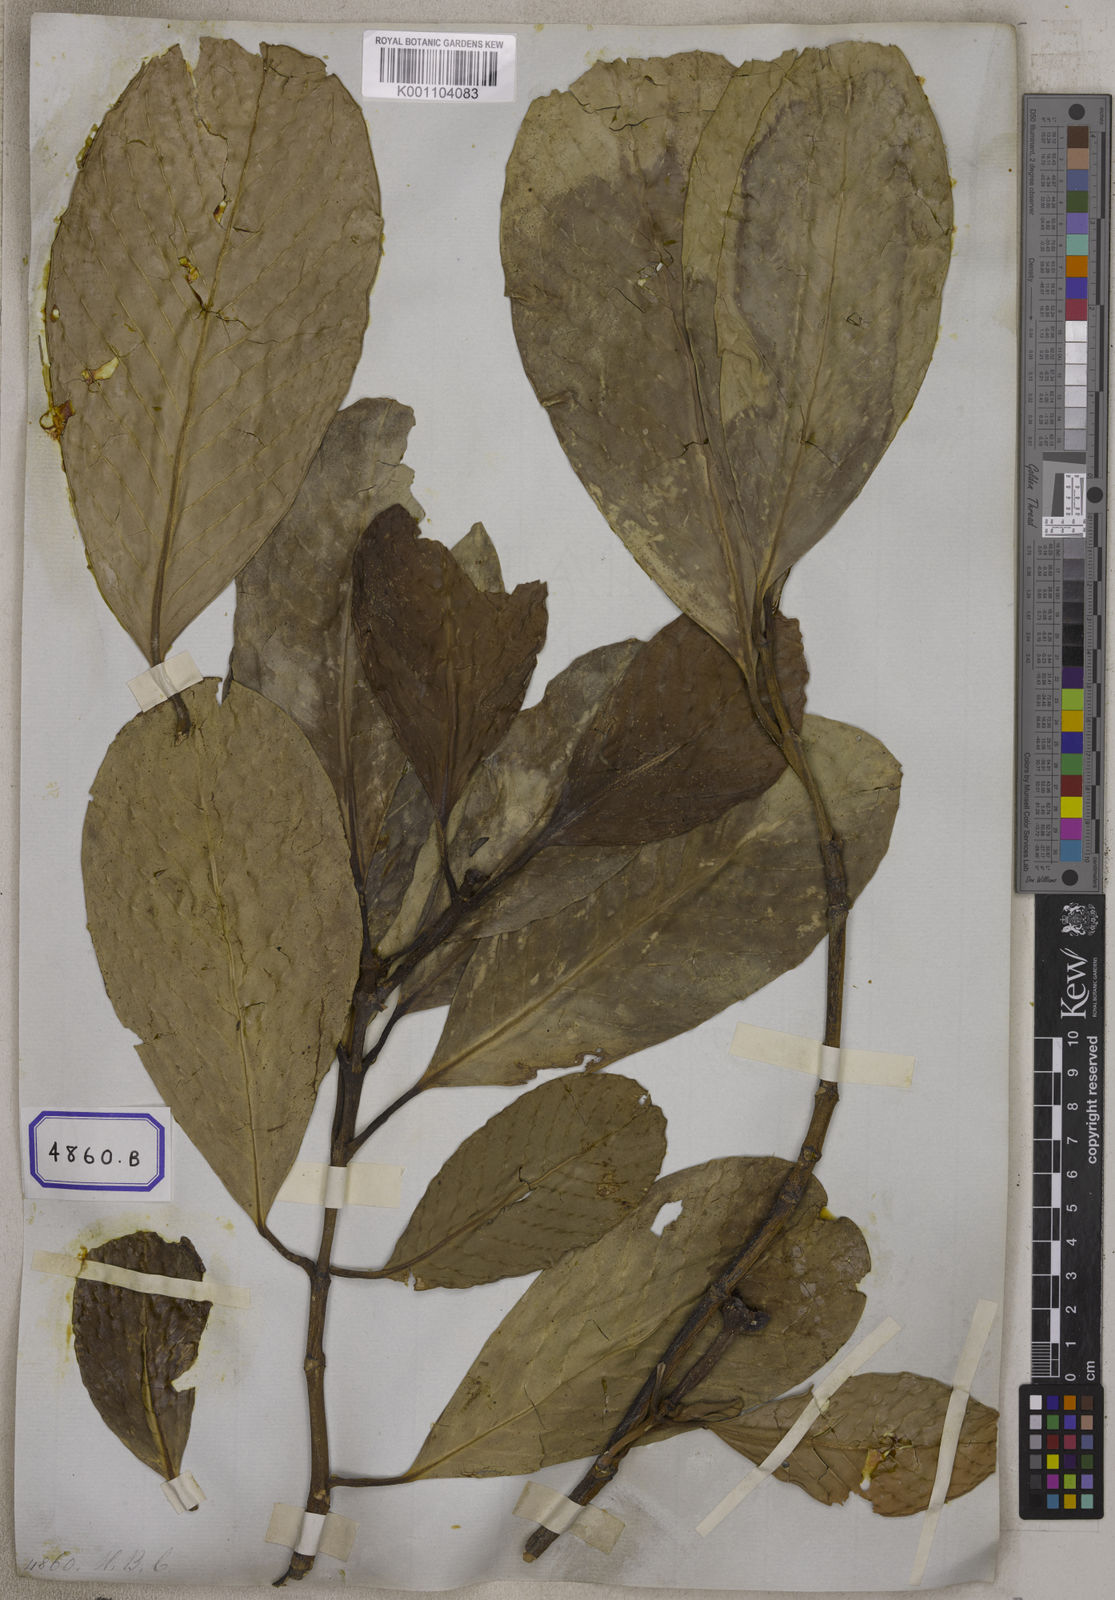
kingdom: Plantae
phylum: Tracheophyta
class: Magnoliopsida
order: Malpighiales
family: Clusiaceae
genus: Garcinia
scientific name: Garcinia
